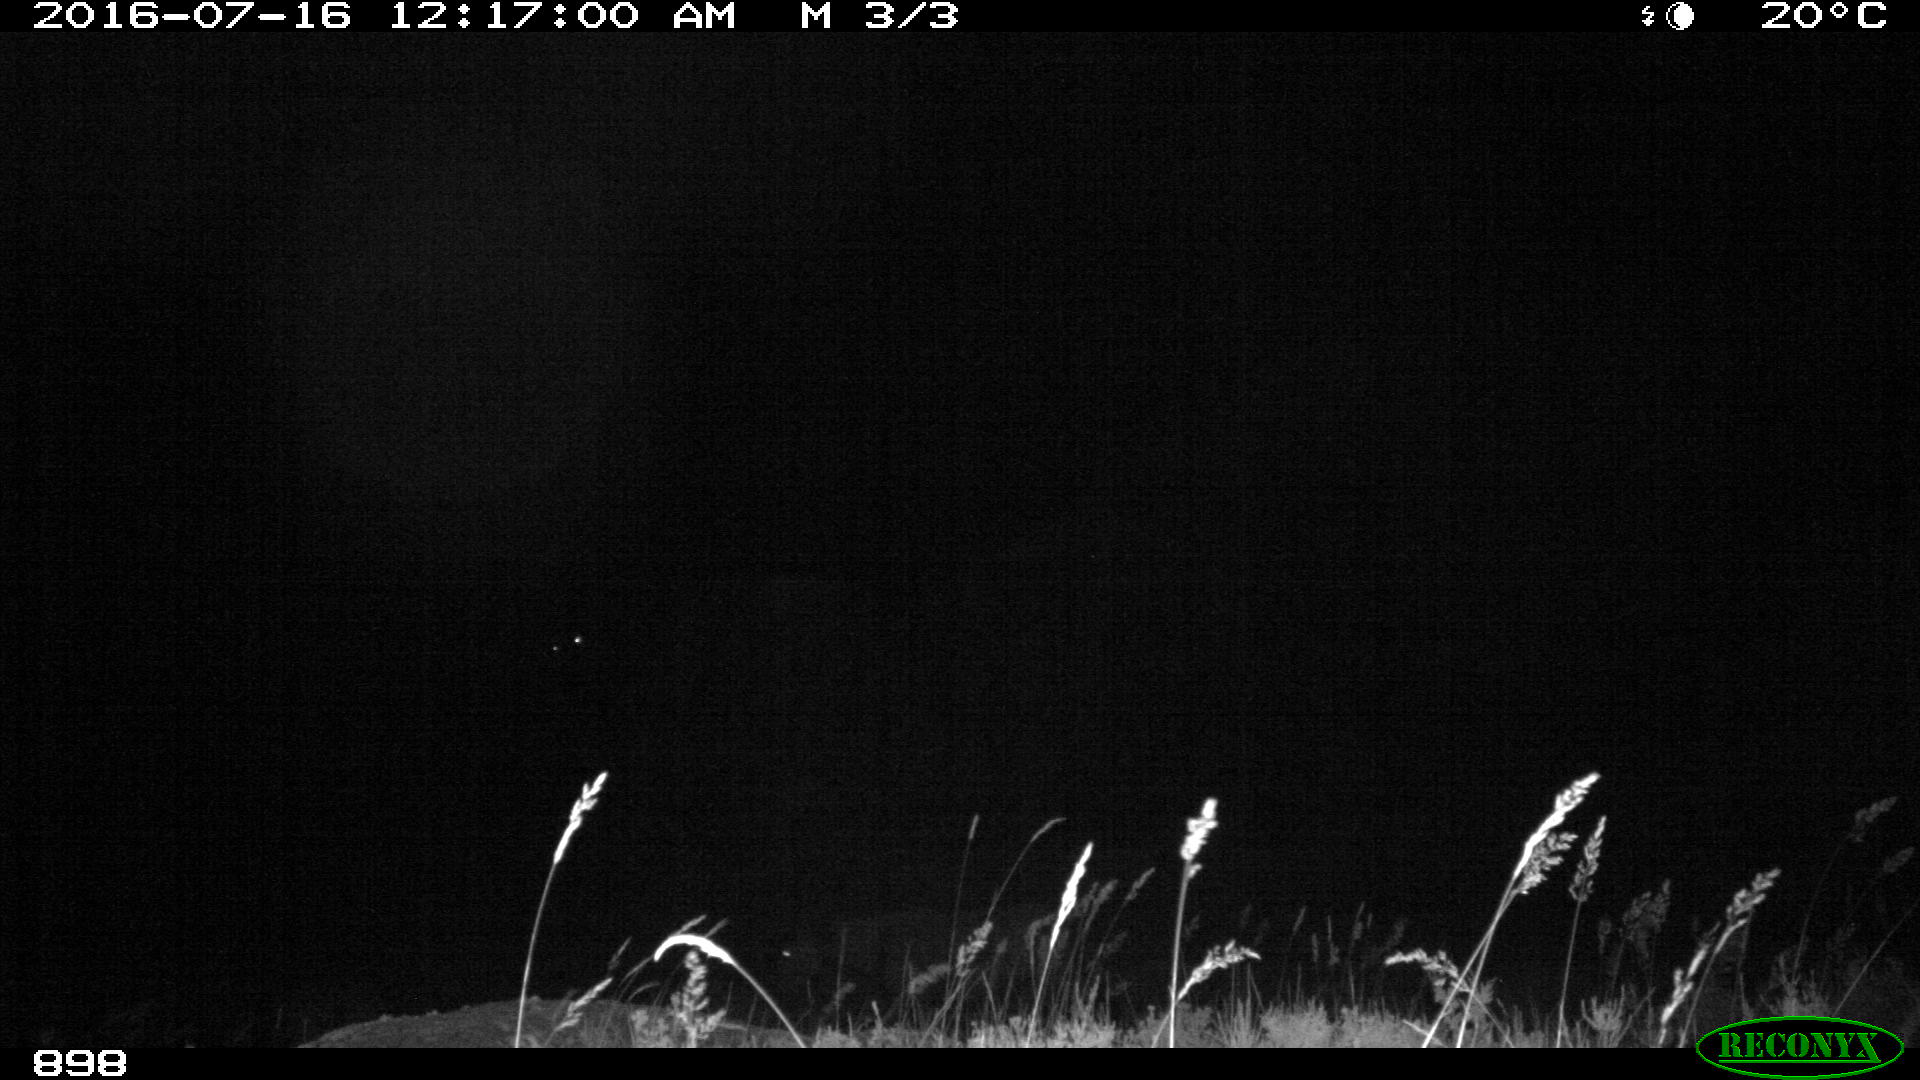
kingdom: Animalia
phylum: Chordata
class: Mammalia
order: Perissodactyla
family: Equidae
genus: Equus
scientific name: Equus caballus
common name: Horse
